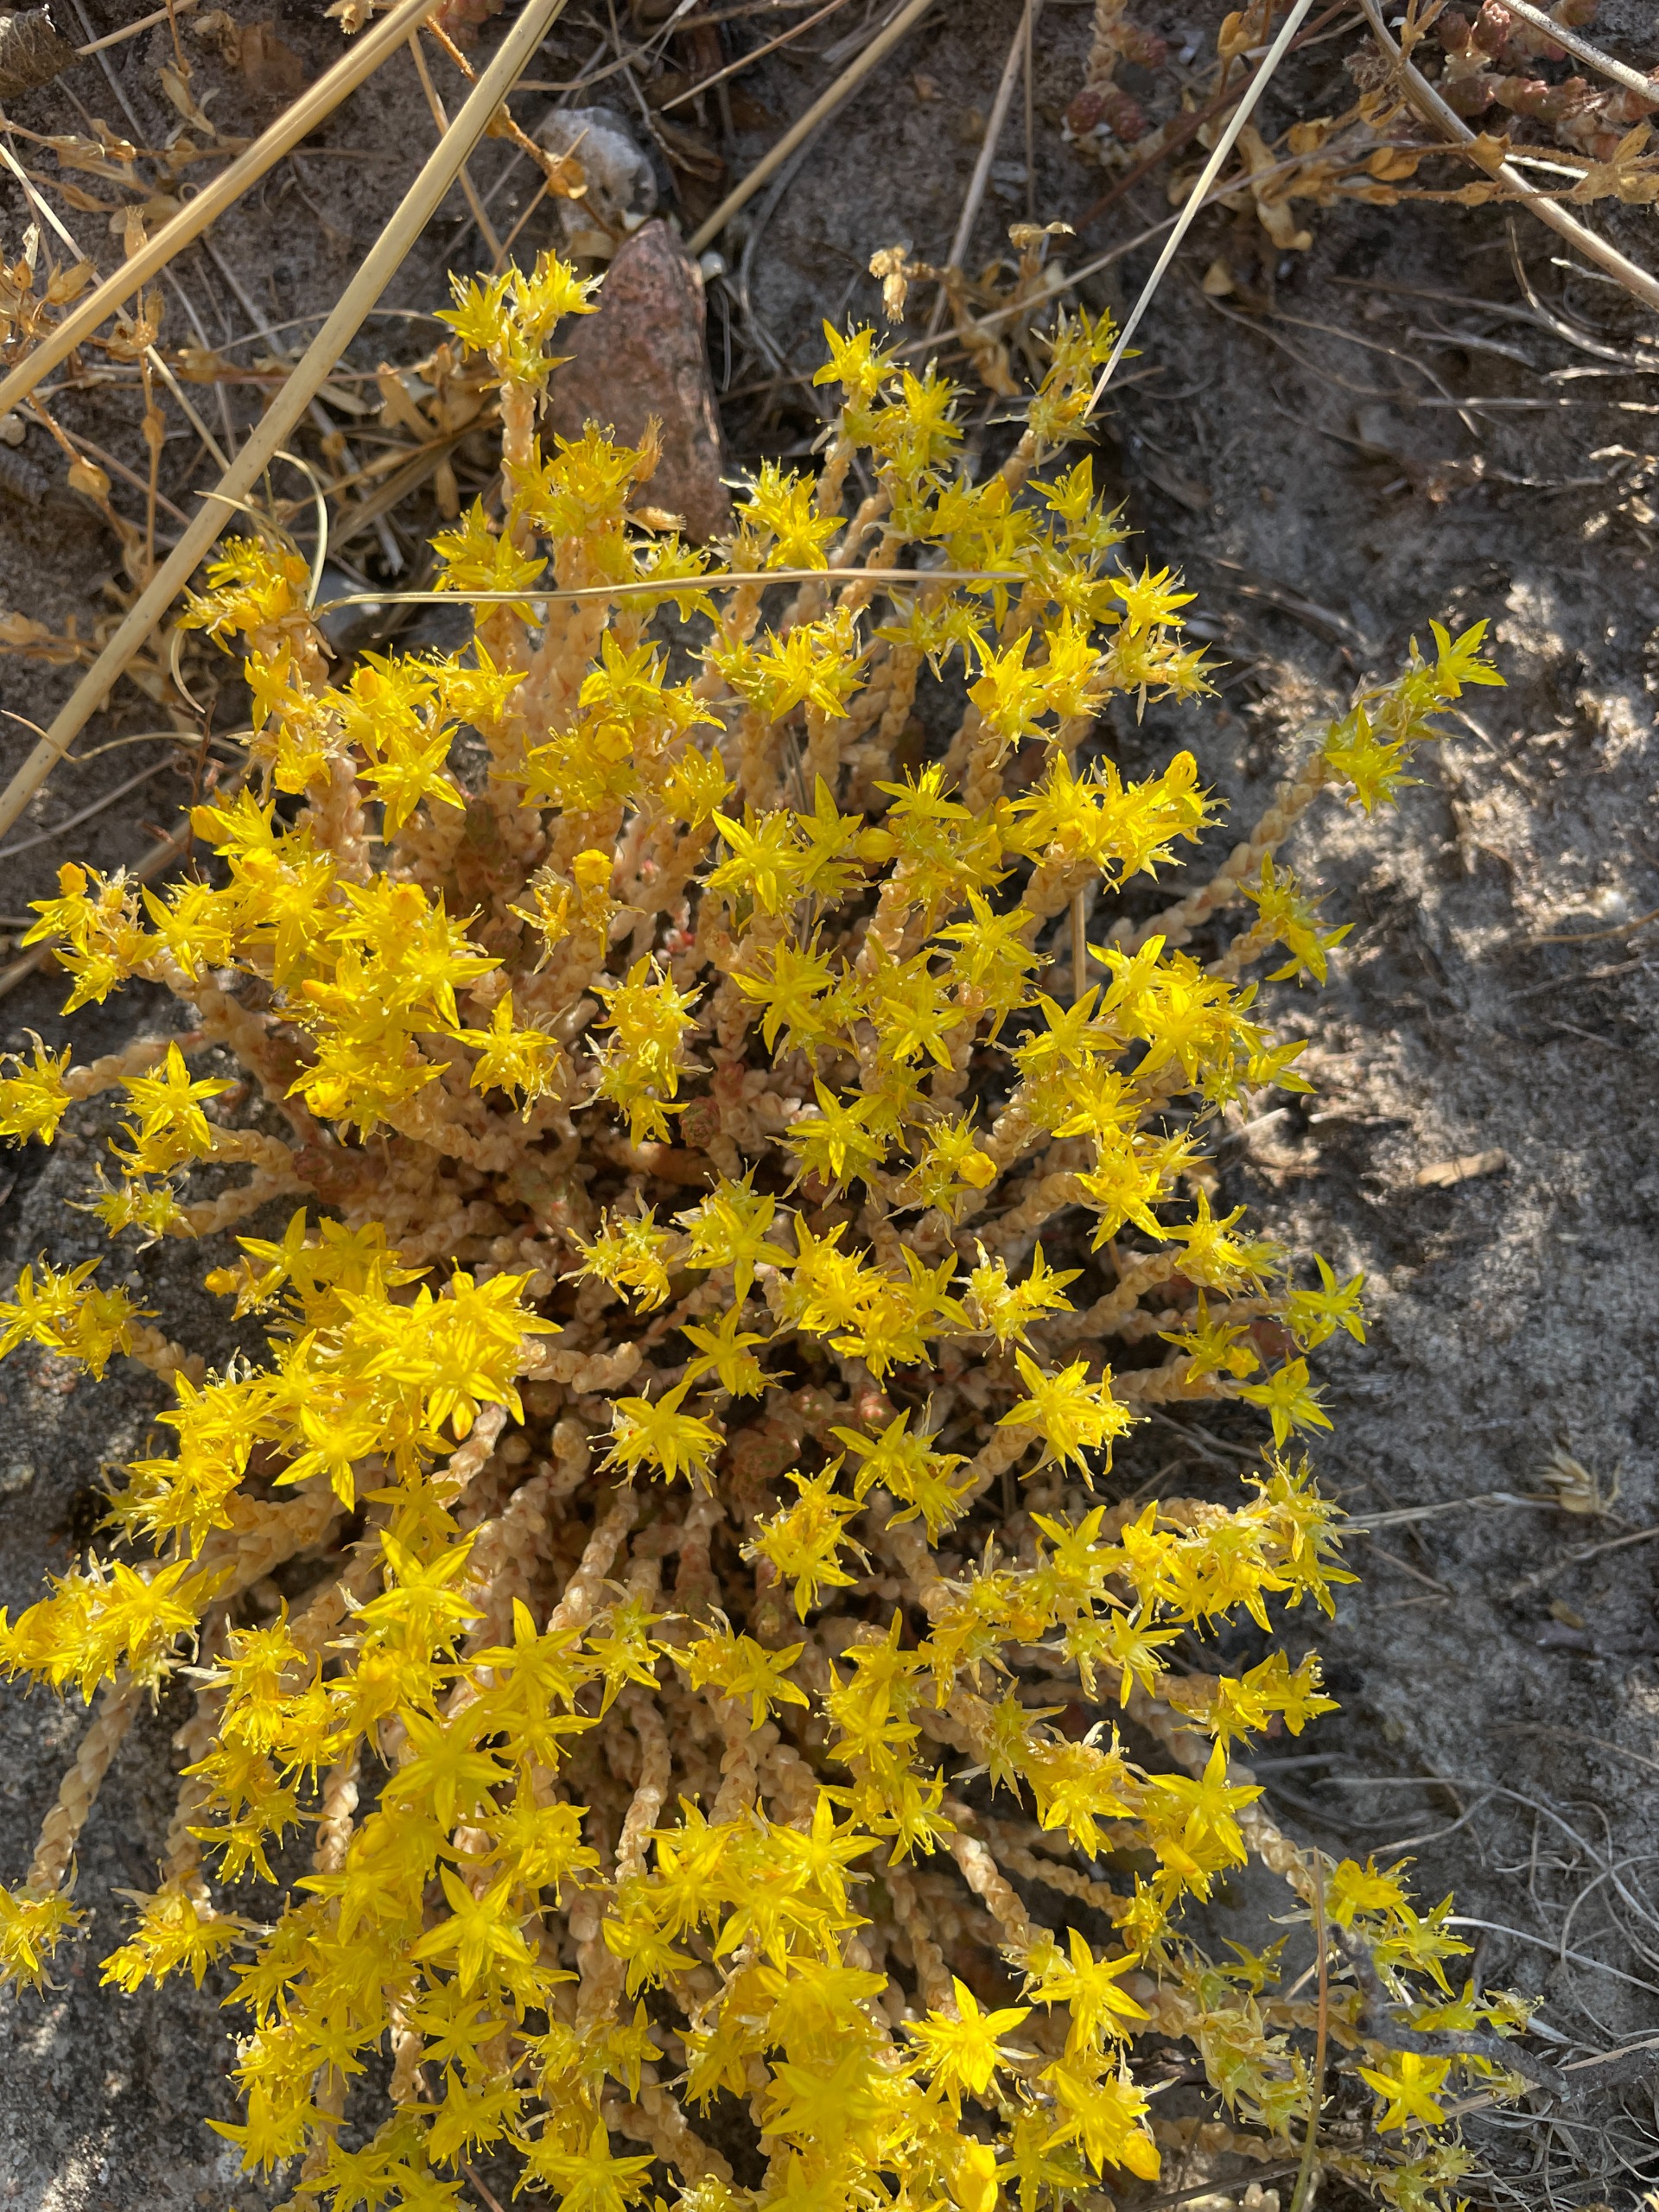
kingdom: Plantae
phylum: Tracheophyta
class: Magnoliopsida
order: Saxifragales
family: Crassulaceae
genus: Sedum
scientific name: Sedum acre
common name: Bidende stenurt
